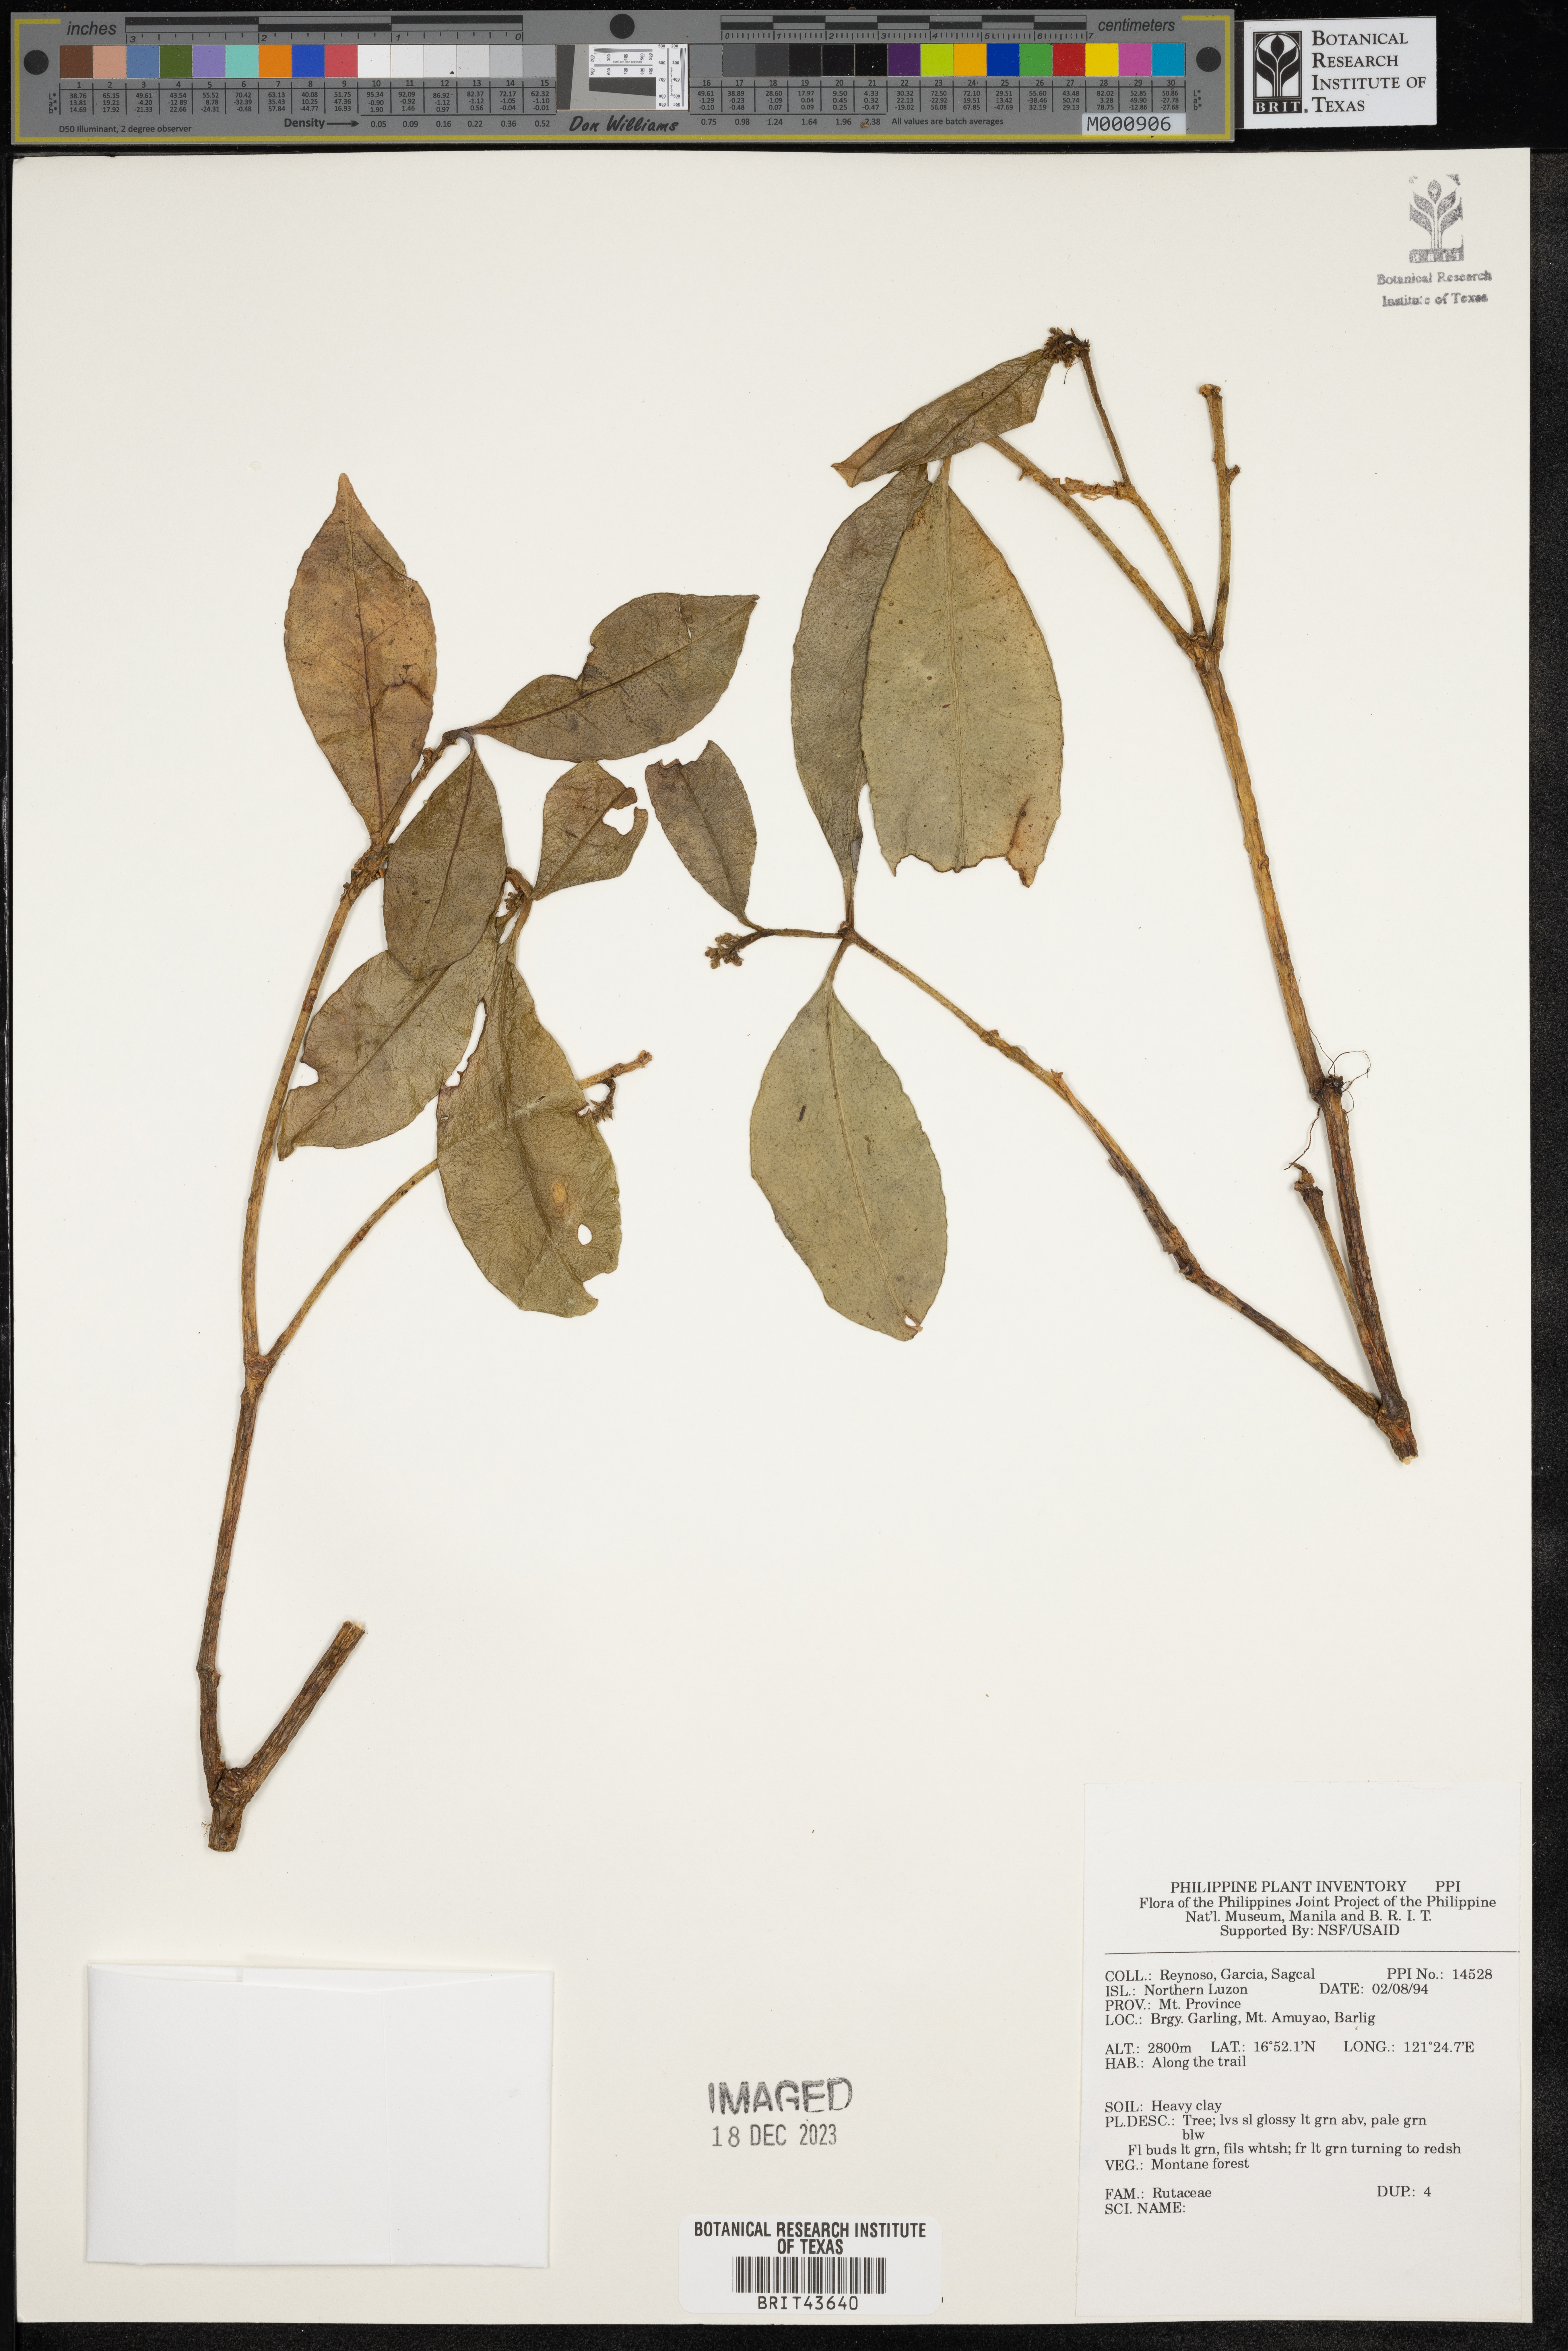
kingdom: Plantae
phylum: Tracheophyta
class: Magnoliopsida
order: Sapindales
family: Rutaceae
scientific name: Rutaceae
